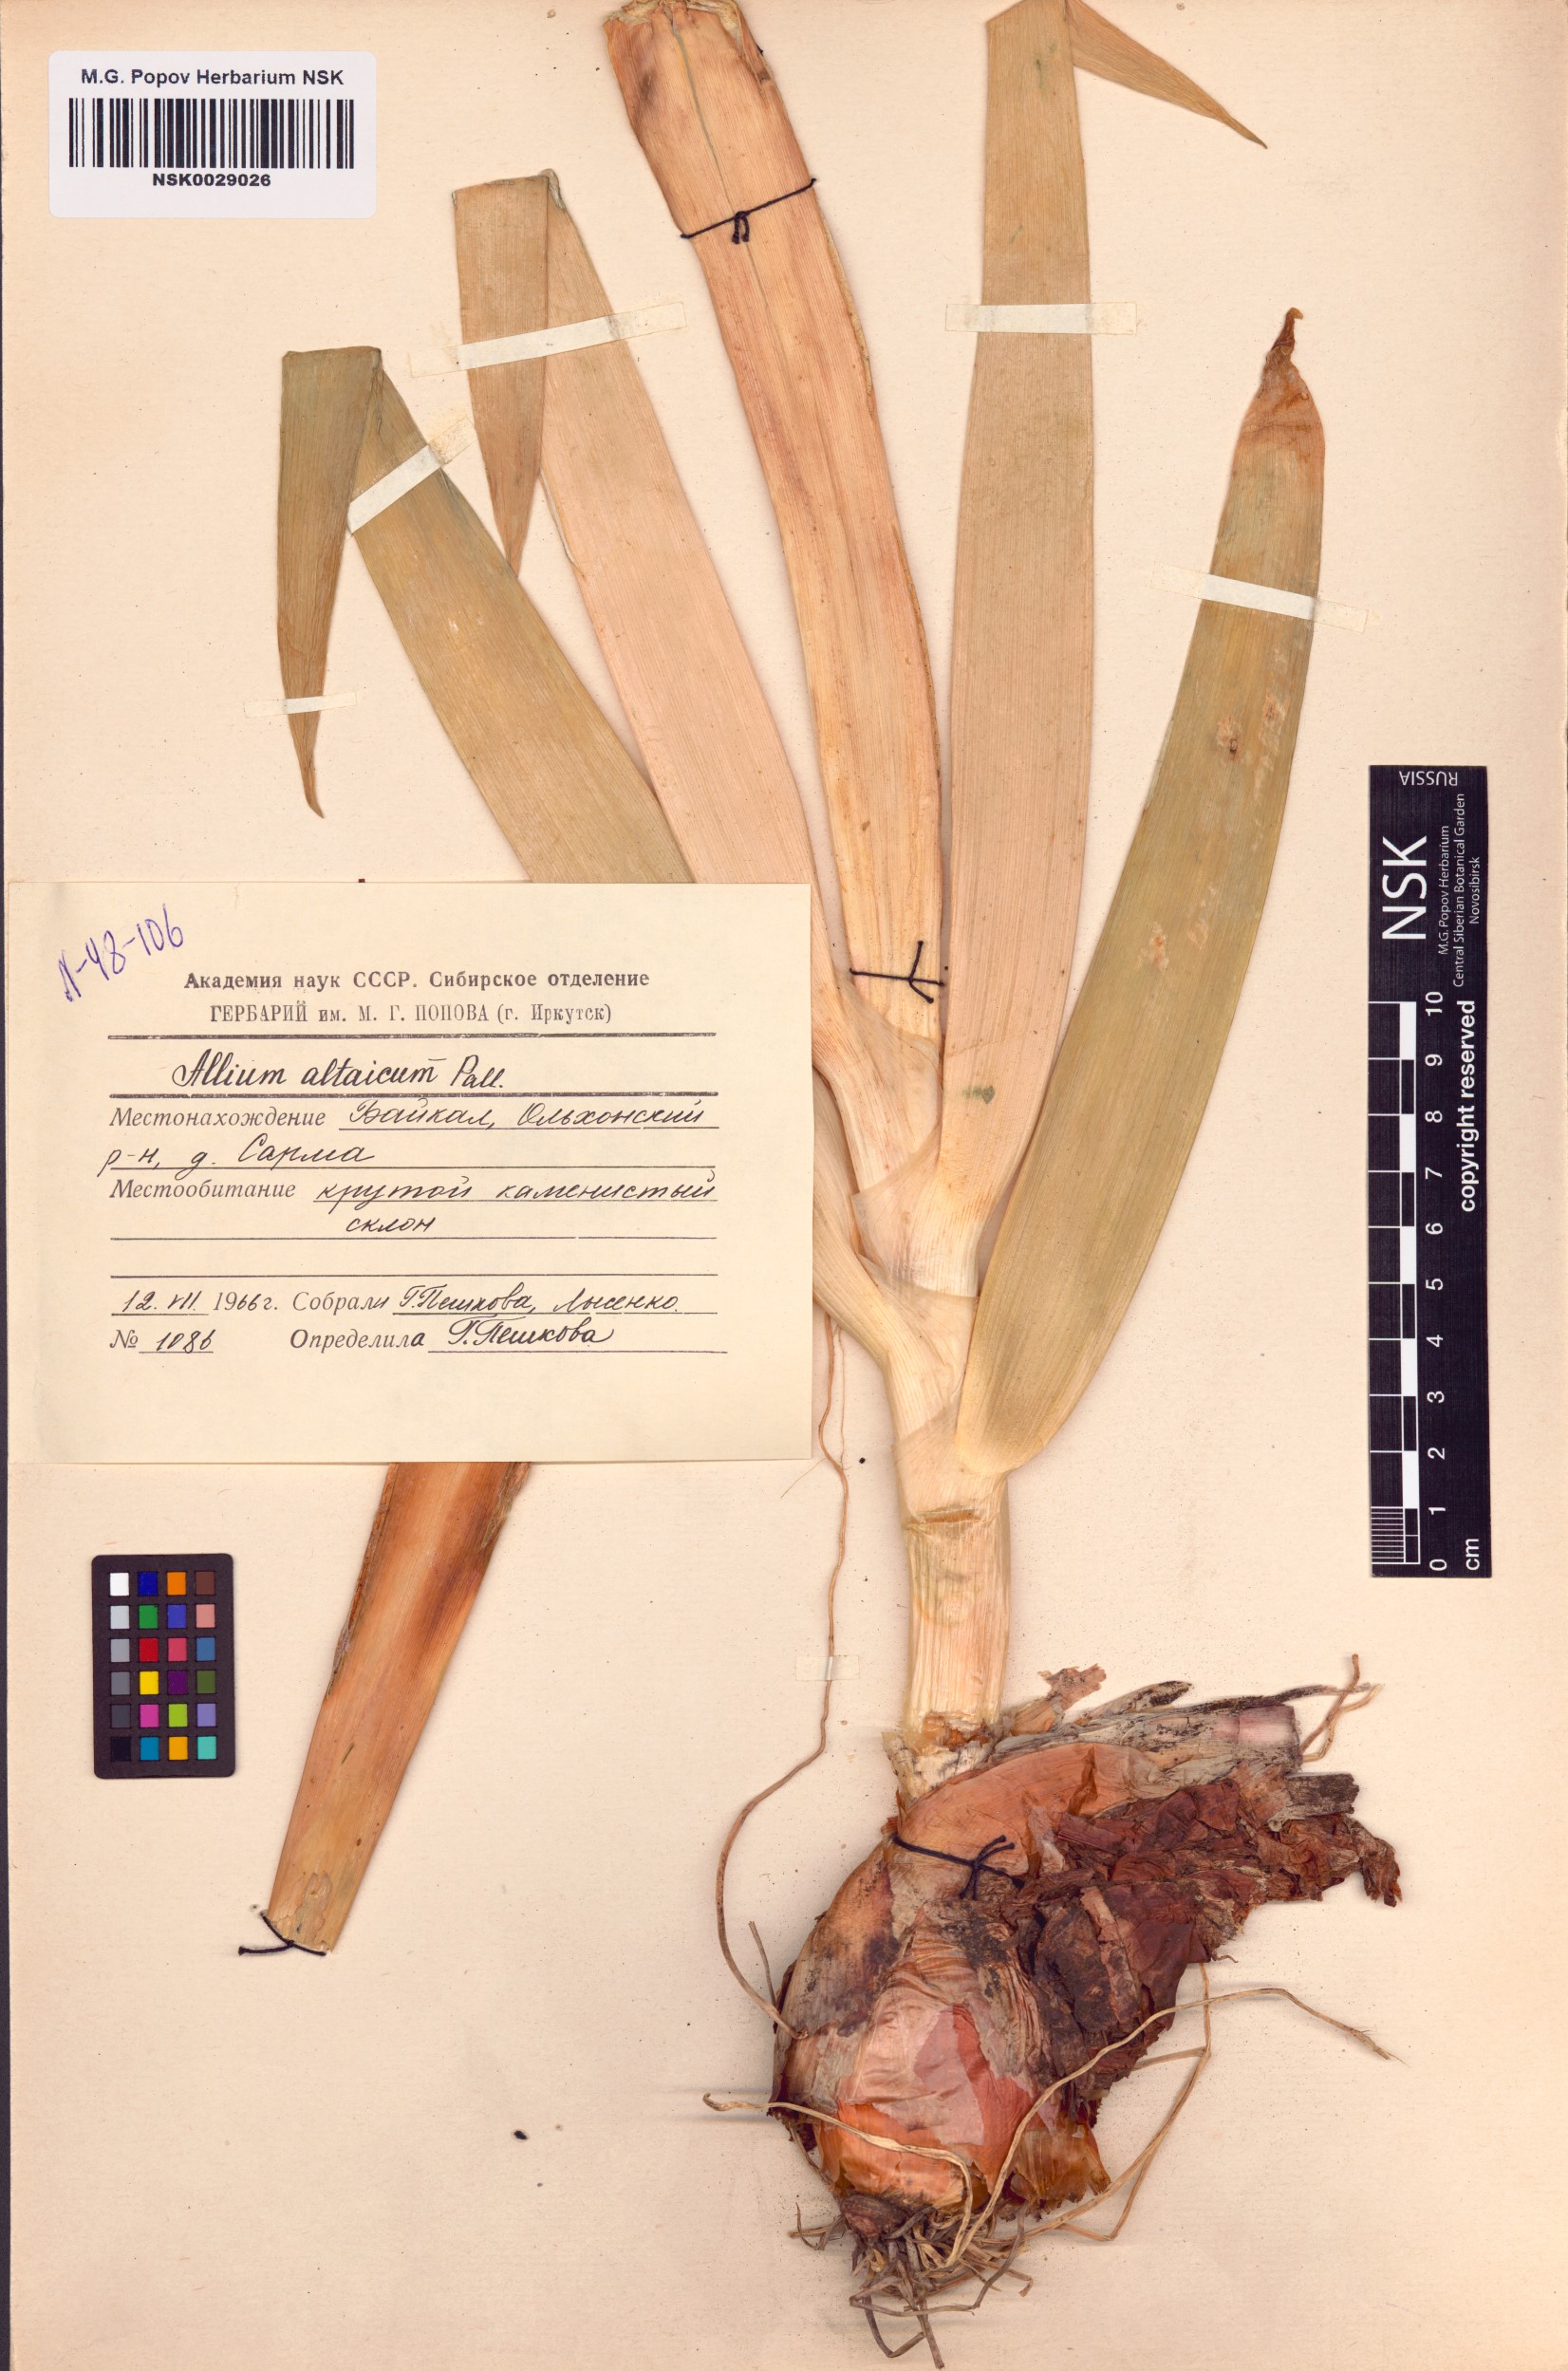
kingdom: Plantae
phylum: Tracheophyta
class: Liliopsida
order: Asparagales
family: Amaryllidaceae
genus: Allium
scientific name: Allium altaicum
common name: Altai onion
